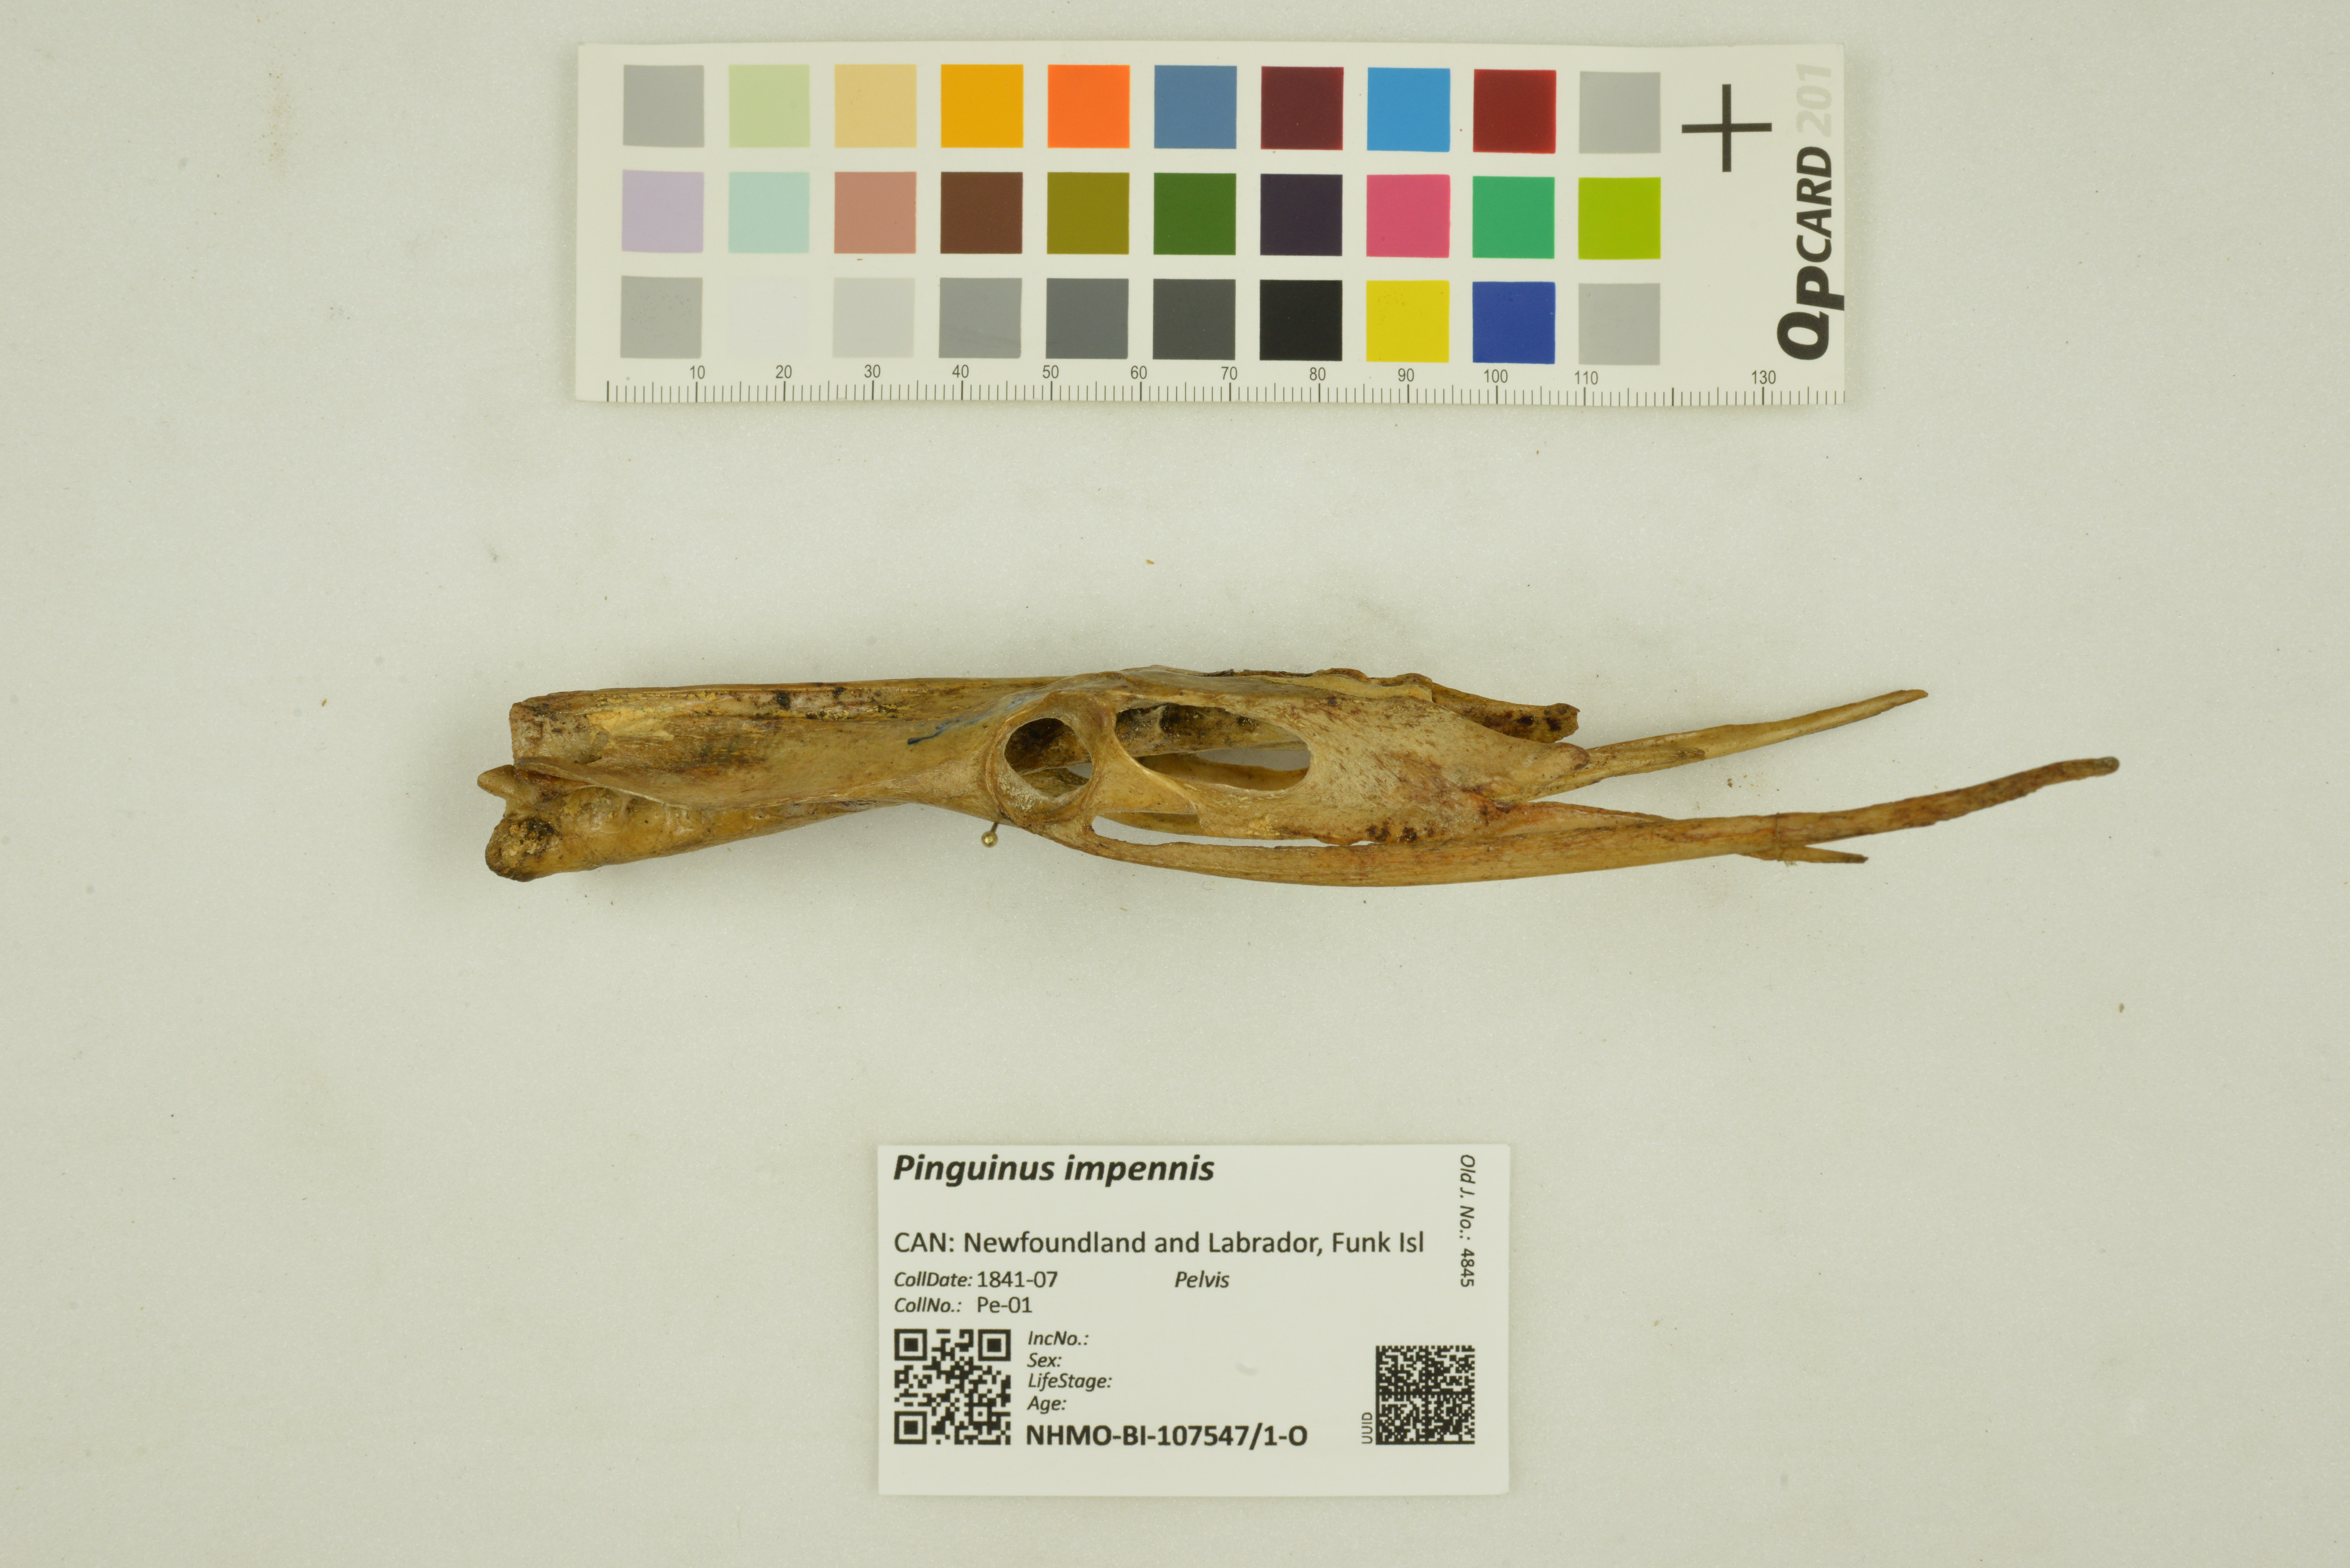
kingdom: Animalia
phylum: Chordata
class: Aves
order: Charadriiformes
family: Alcidae
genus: Pinguinus
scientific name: Pinguinus impennis
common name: Great auk
